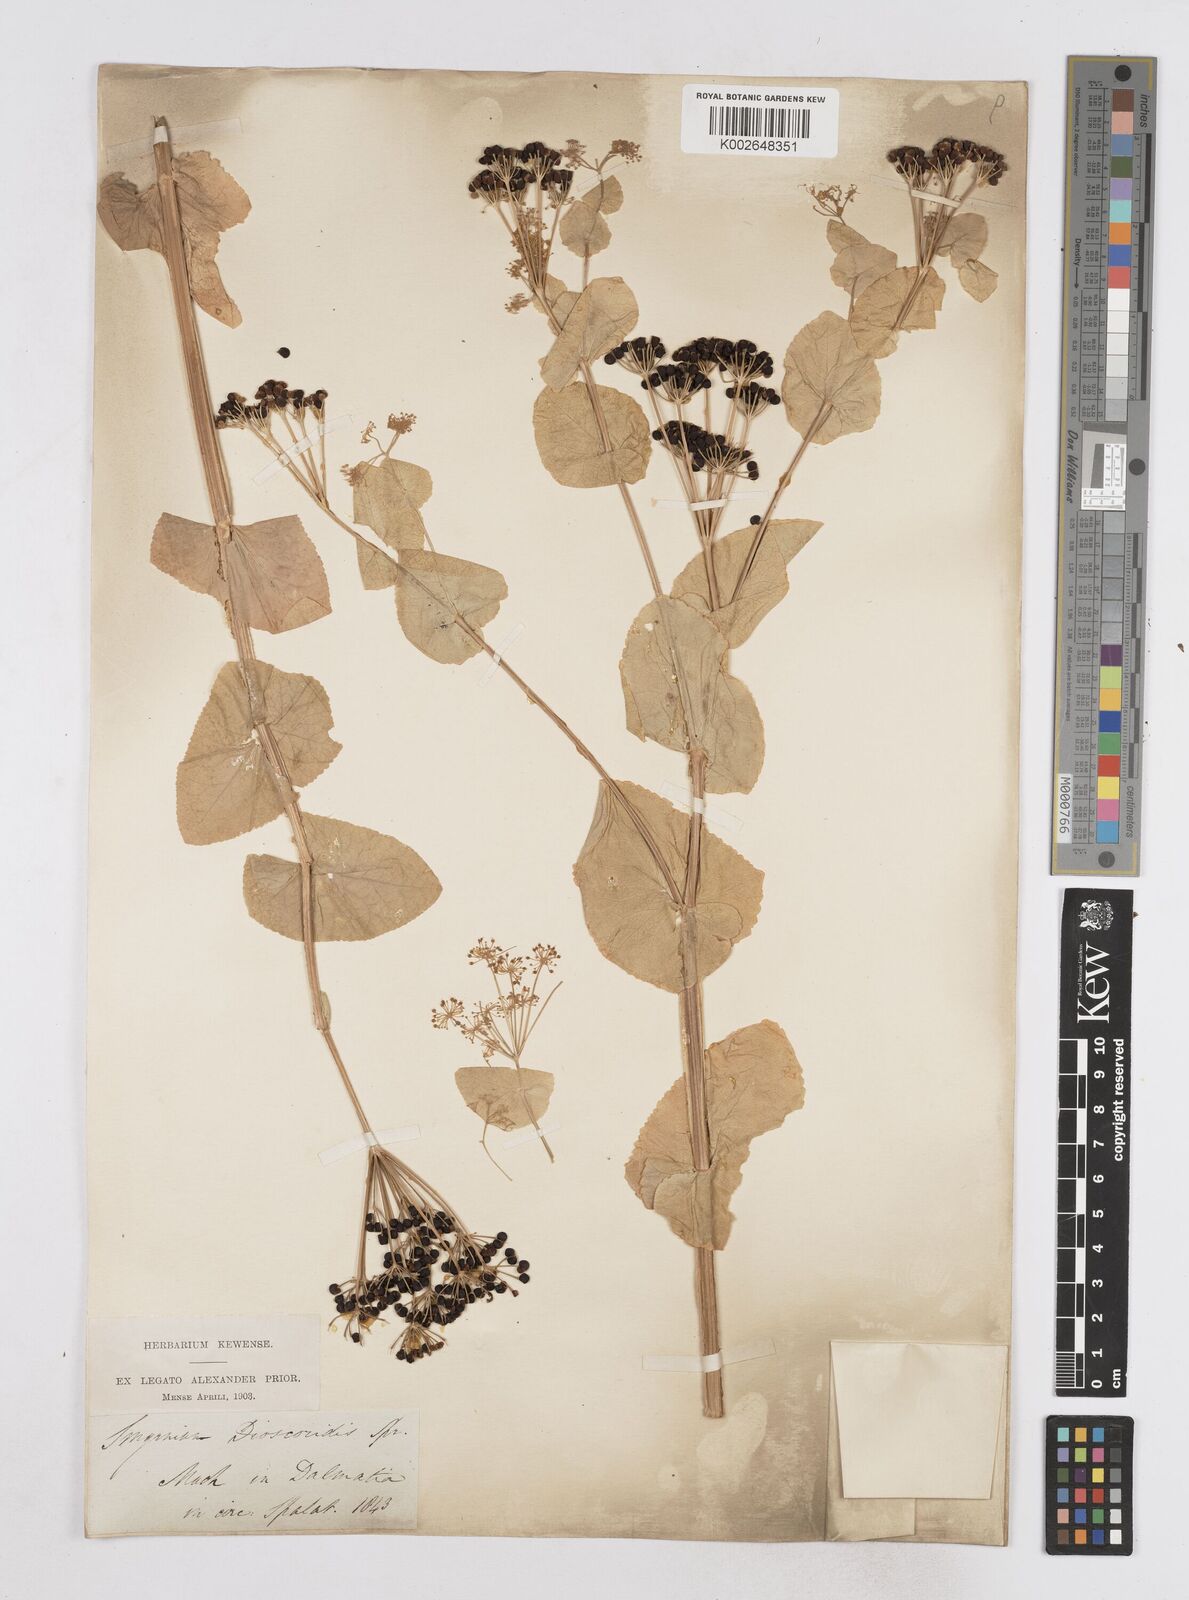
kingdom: Plantae
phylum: Tracheophyta
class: Magnoliopsida
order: Apiales
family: Apiaceae
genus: Smyrnium
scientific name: Smyrnium perfoliatum
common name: Perfoliate alexanders
